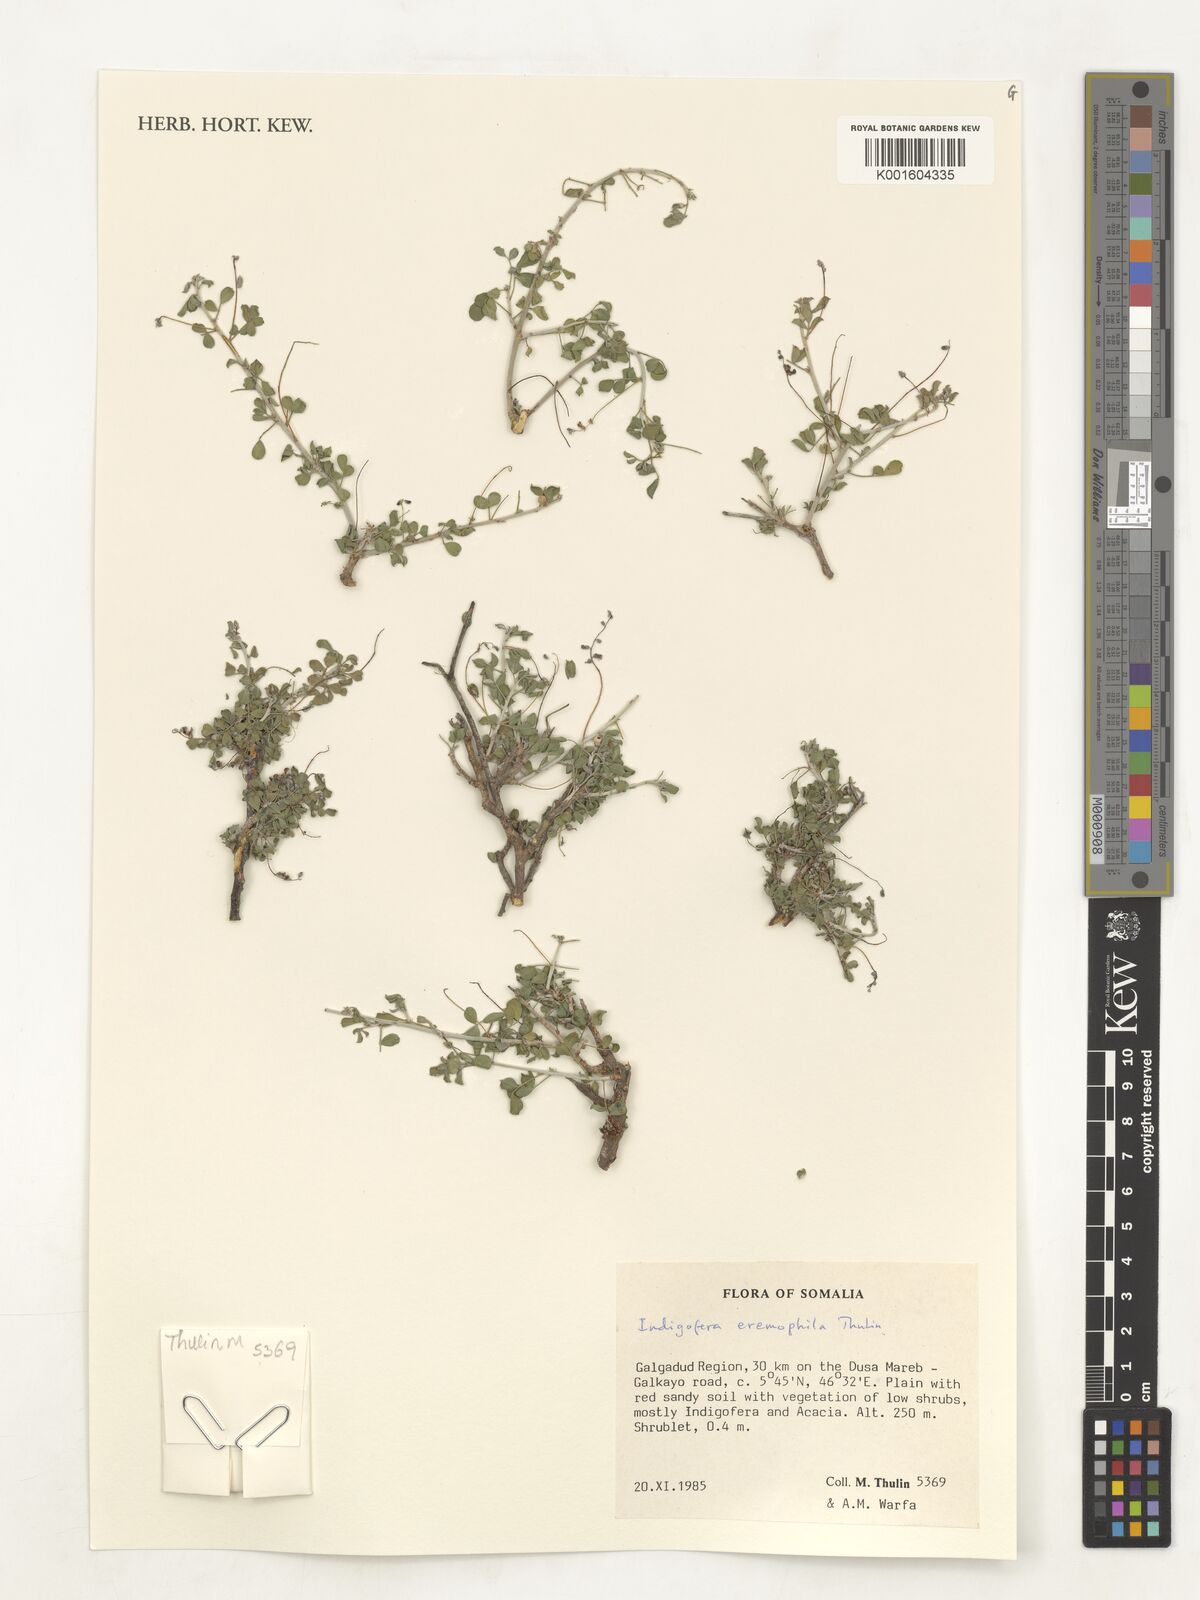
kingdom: Plantae
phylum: Tracheophyta
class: Magnoliopsida
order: Fabales
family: Fabaceae
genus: Indigofera
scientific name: Indigofera eremophila
